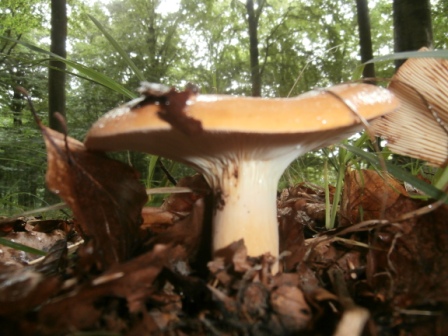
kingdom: Fungi
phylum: Basidiomycota
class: Agaricomycetes
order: Russulales
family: Russulaceae
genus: Lactifluus
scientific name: Lactifluus volemus
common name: spiselig mælkehat
